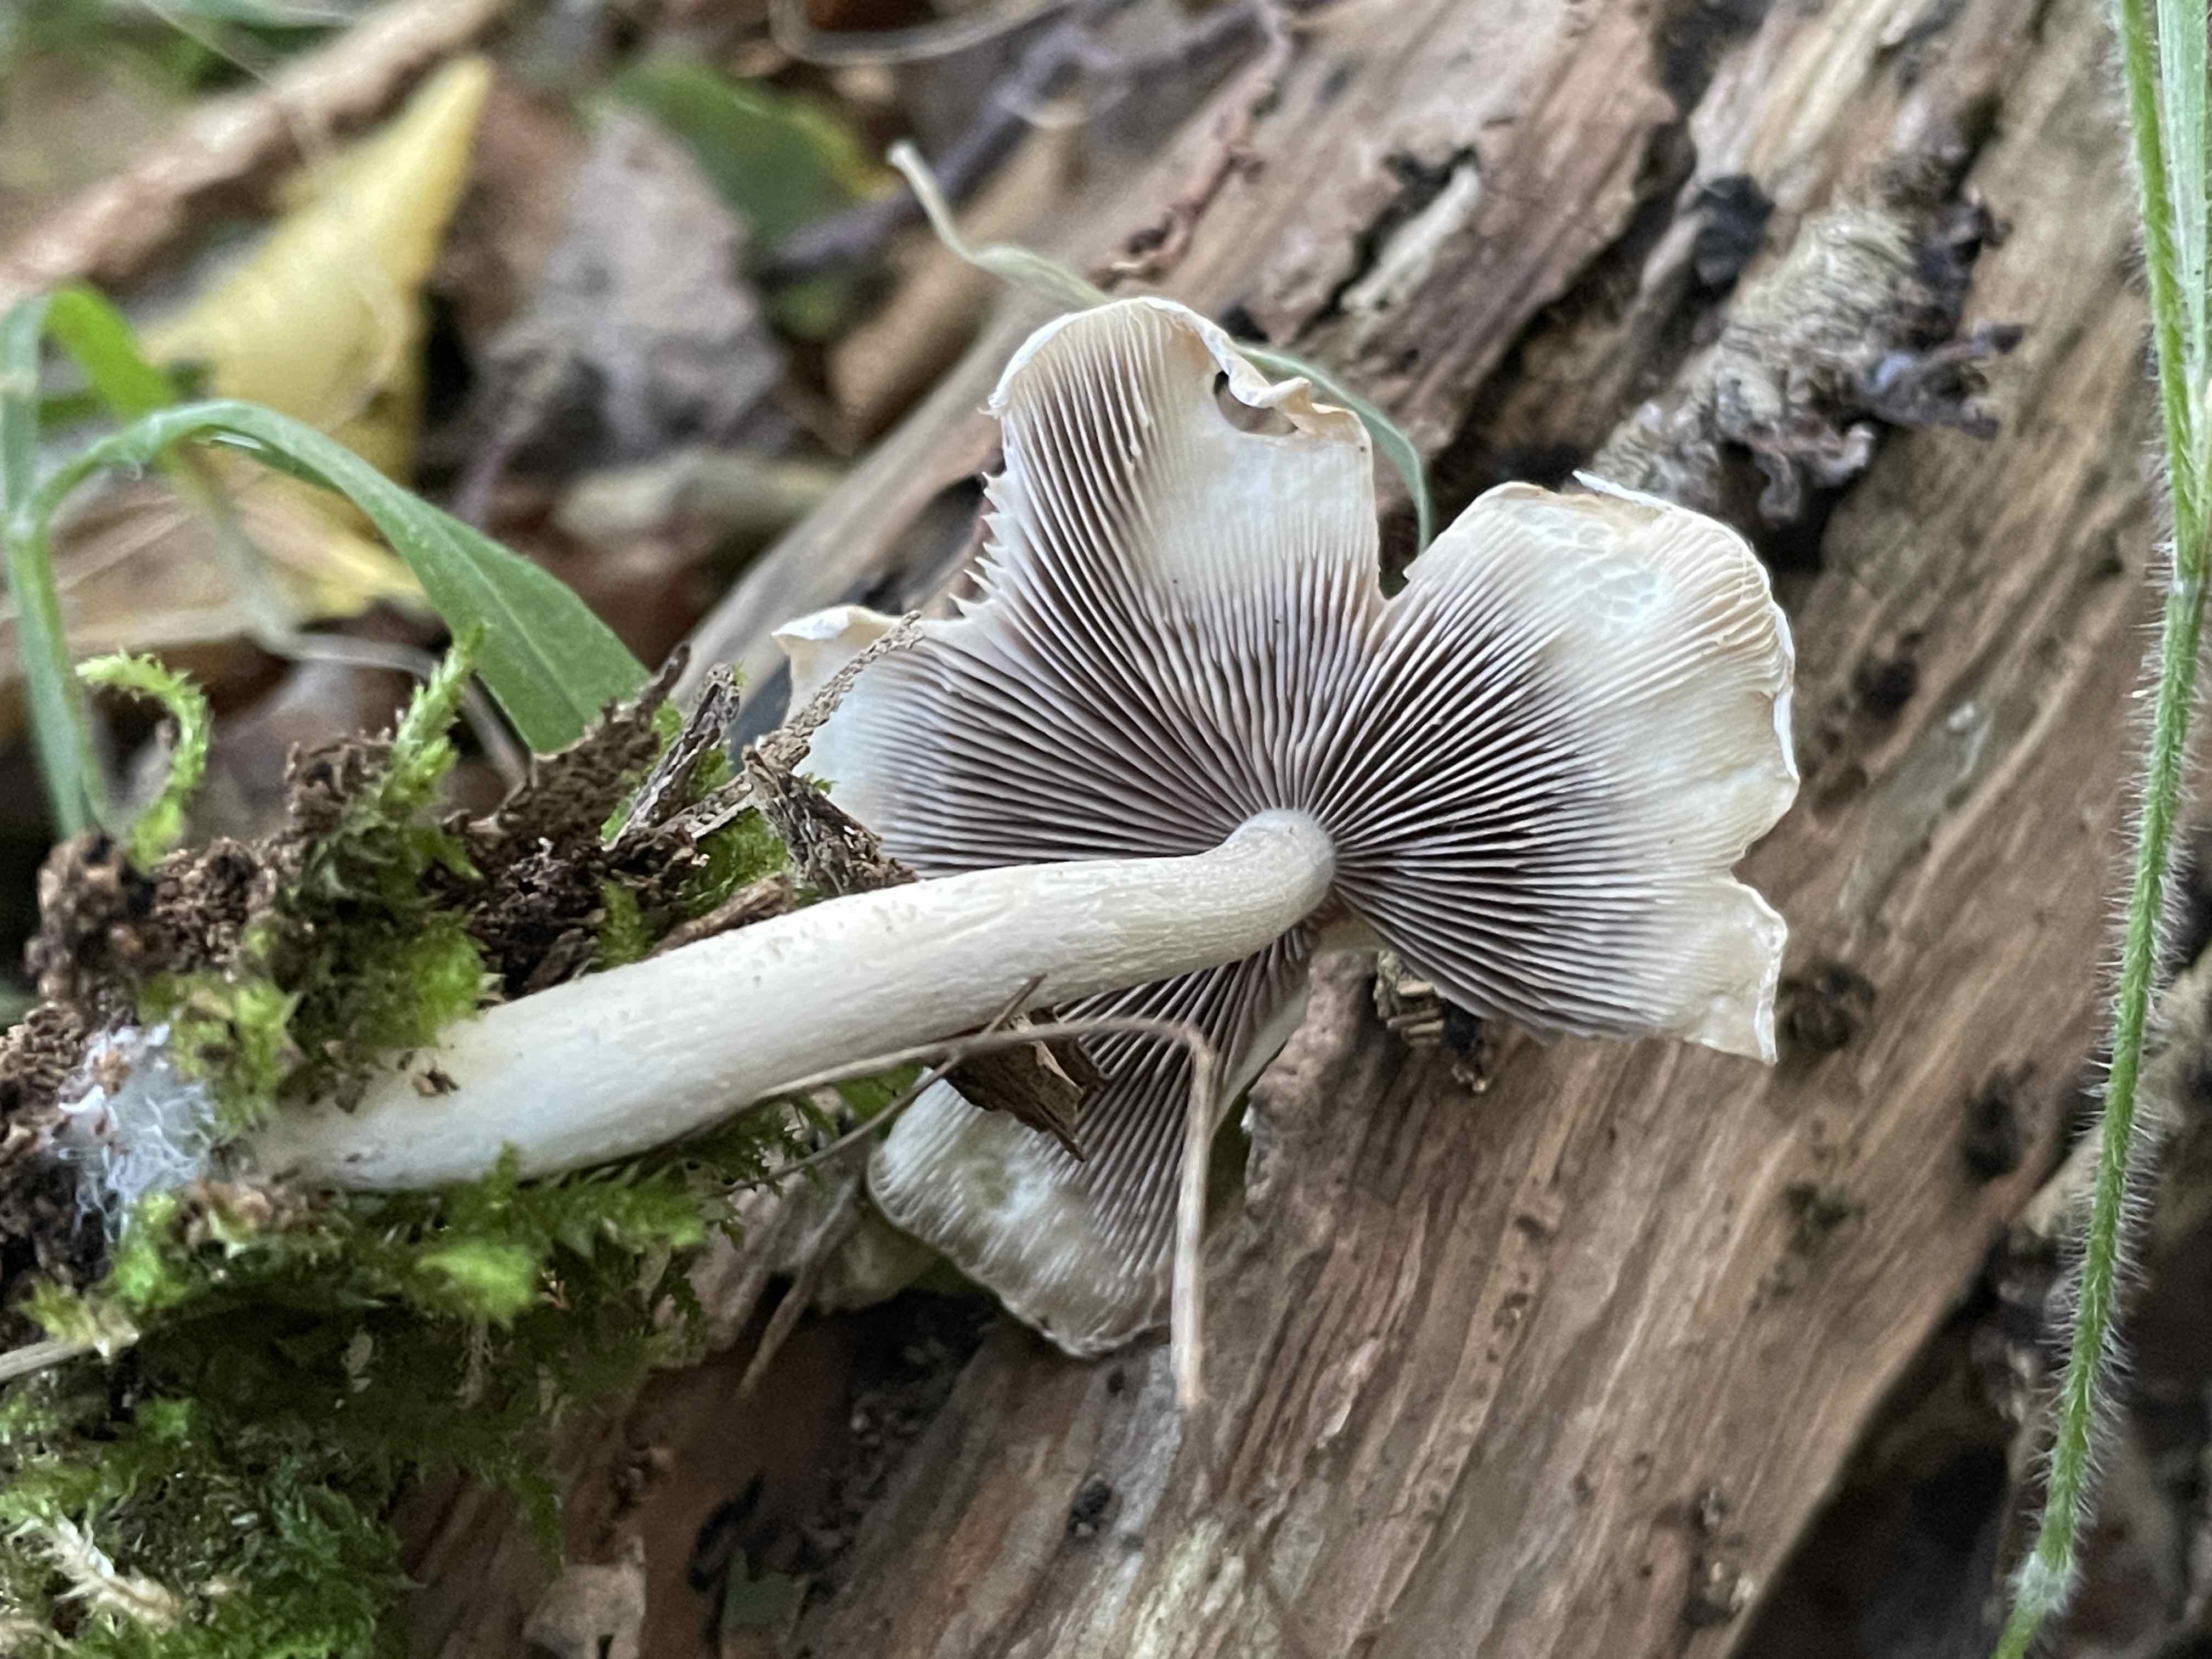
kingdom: Fungi
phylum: Basidiomycota
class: Agaricomycetes
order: Agaricales
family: Psathyrellaceae
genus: Candolleomyces
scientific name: Candolleomyces candolleanus
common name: Candolles mørkhat
